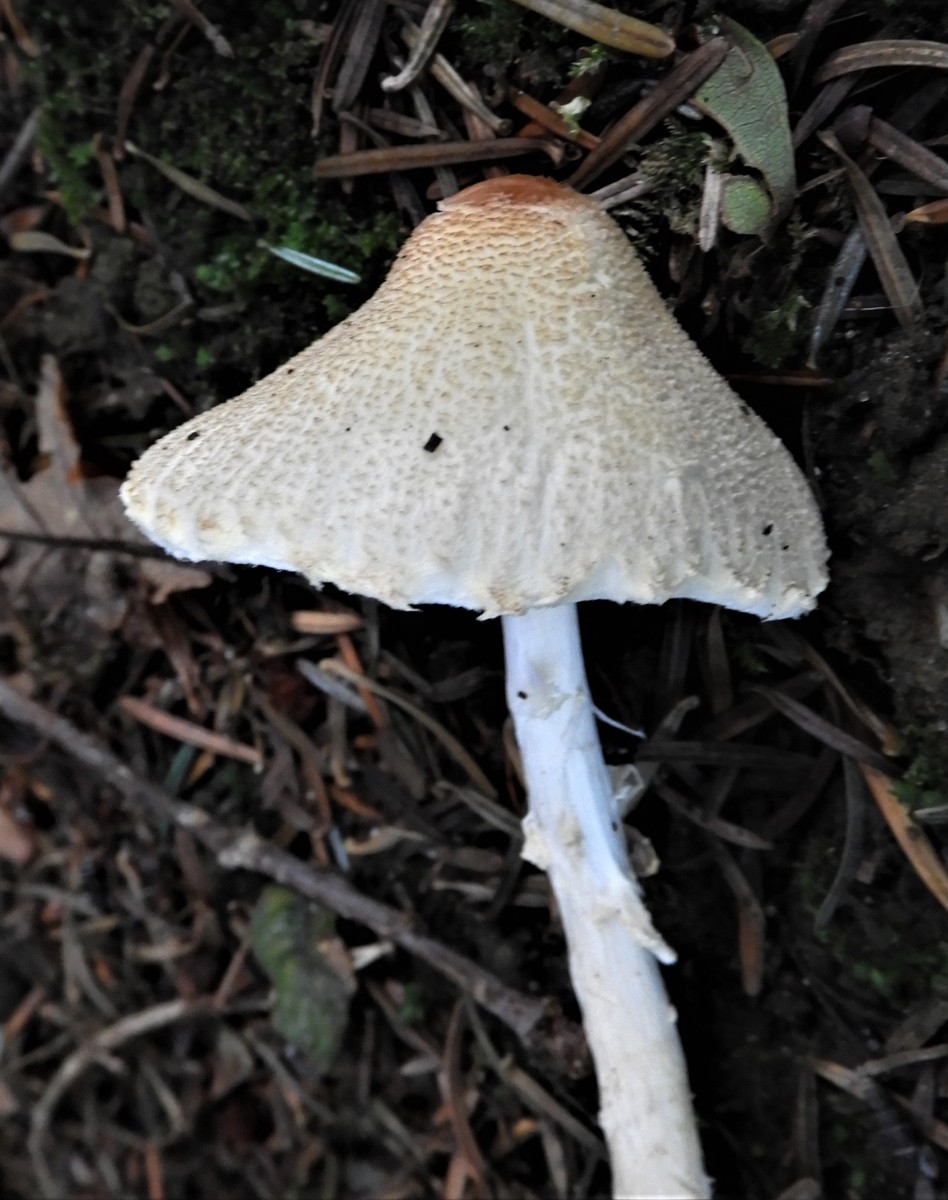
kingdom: Fungi
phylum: Basidiomycota
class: Agaricomycetes
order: Agaricales
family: Agaricaceae
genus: Lepiota
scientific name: Lepiota clypeolaria
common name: flosset parasolhat
